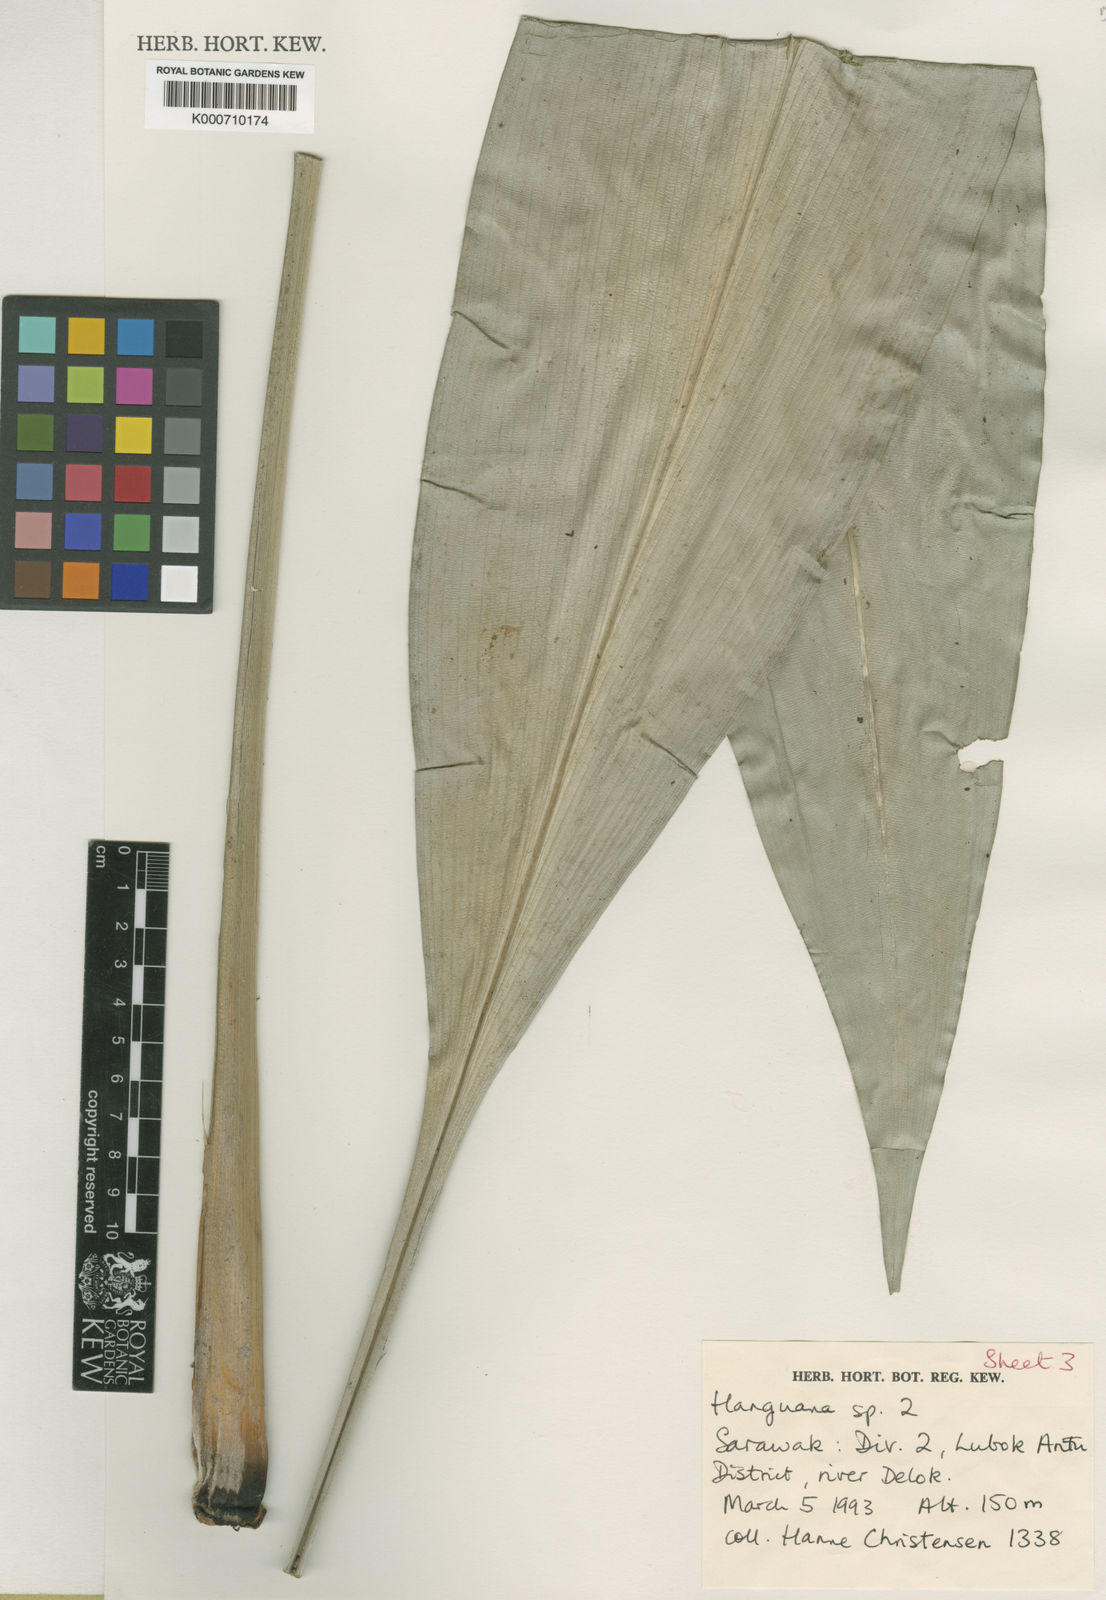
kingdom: Plantae
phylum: Tracheophyta
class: Liliopsida
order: Commelinales
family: Hanguanaceae
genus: Hanguana
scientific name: Hanguana
